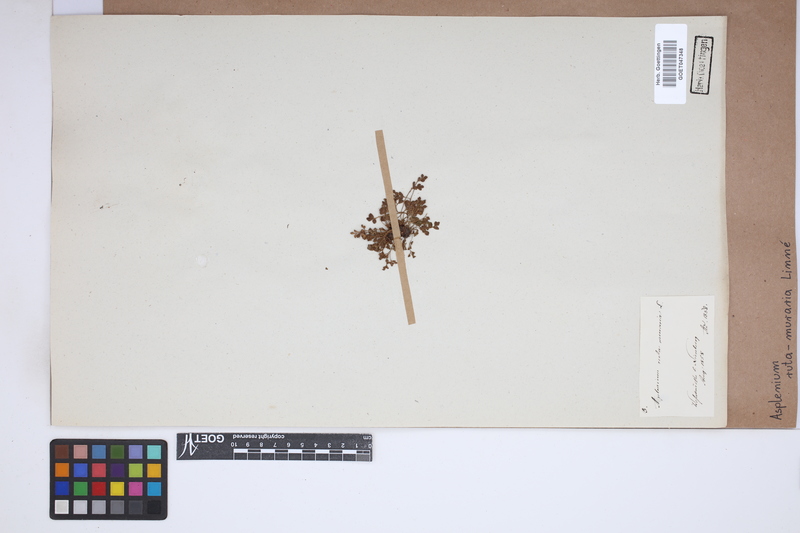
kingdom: Plantae
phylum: Tracheophyta
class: Polypodiopsida
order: Polypodiales
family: Aspleniaceae
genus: Asplenium
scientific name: Asplenium ruta-muraria
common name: Wall-rue
